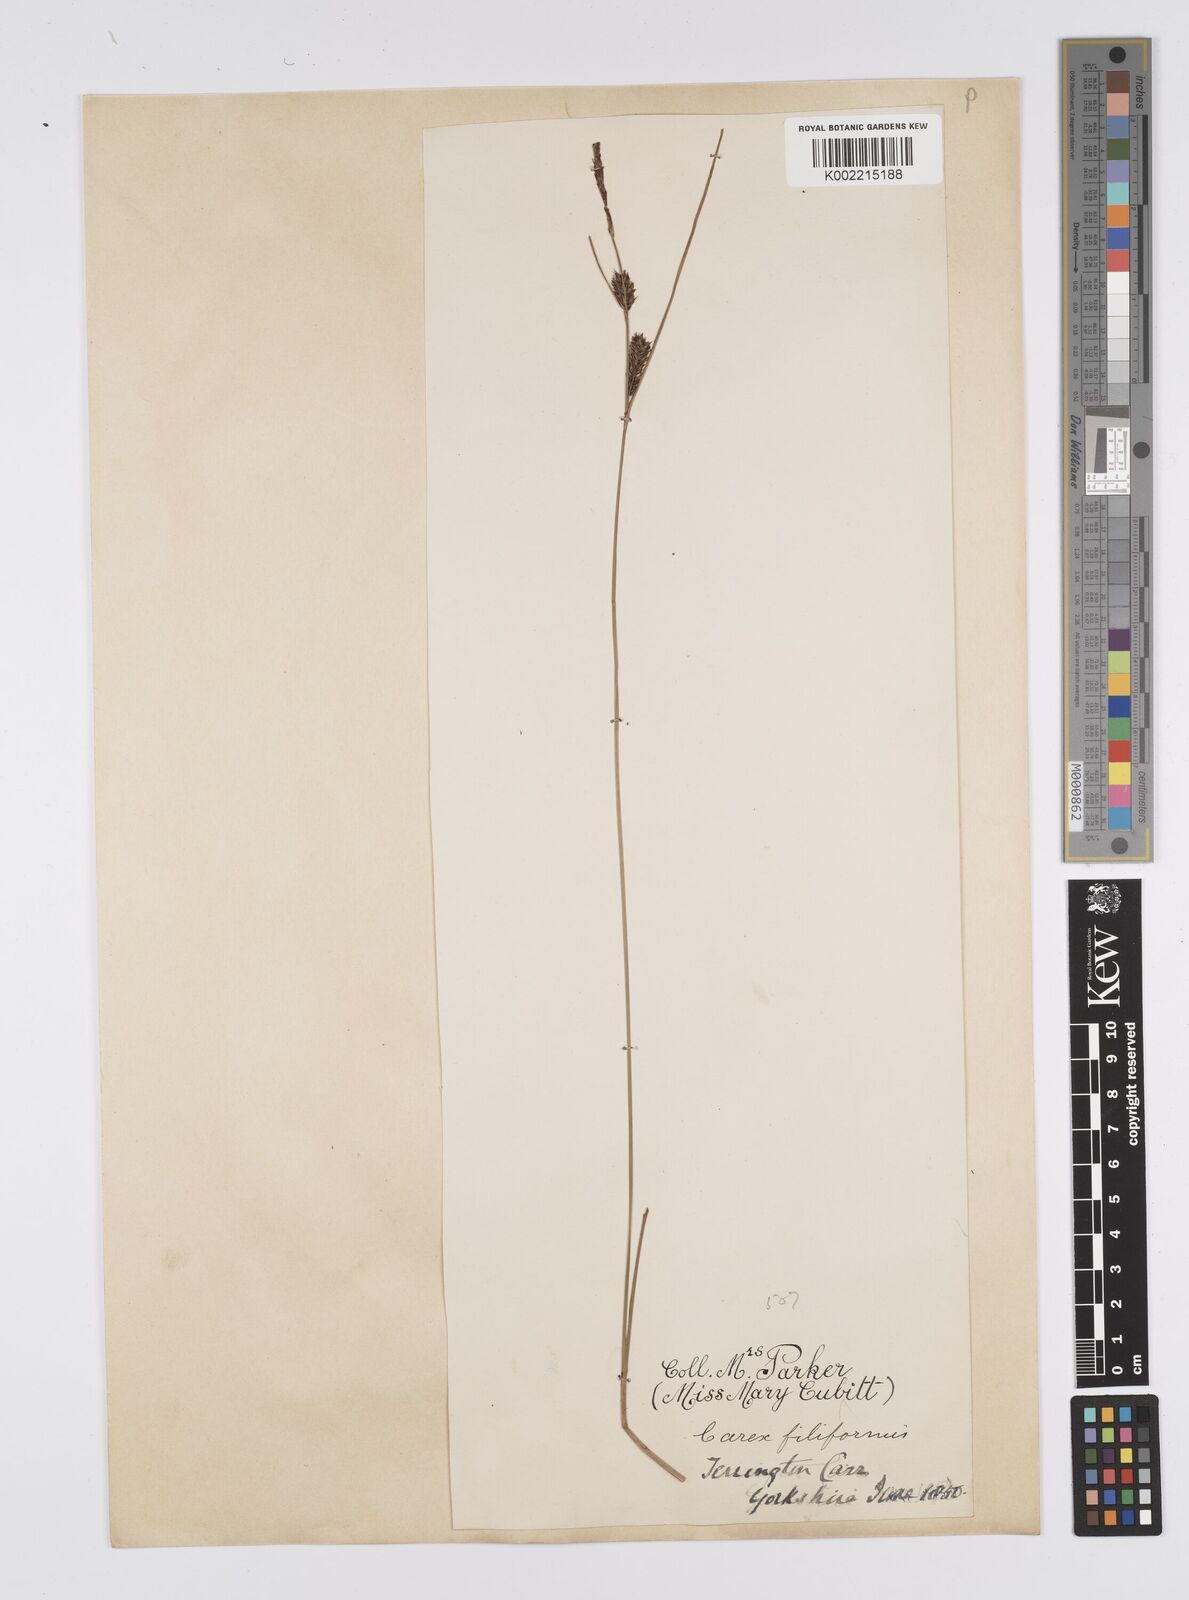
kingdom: Plantae
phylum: Tracheophyta
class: Liliopsida
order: Poales
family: Cyperaceae
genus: Carex
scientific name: Carex lasiocarpa
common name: Slender sedge
